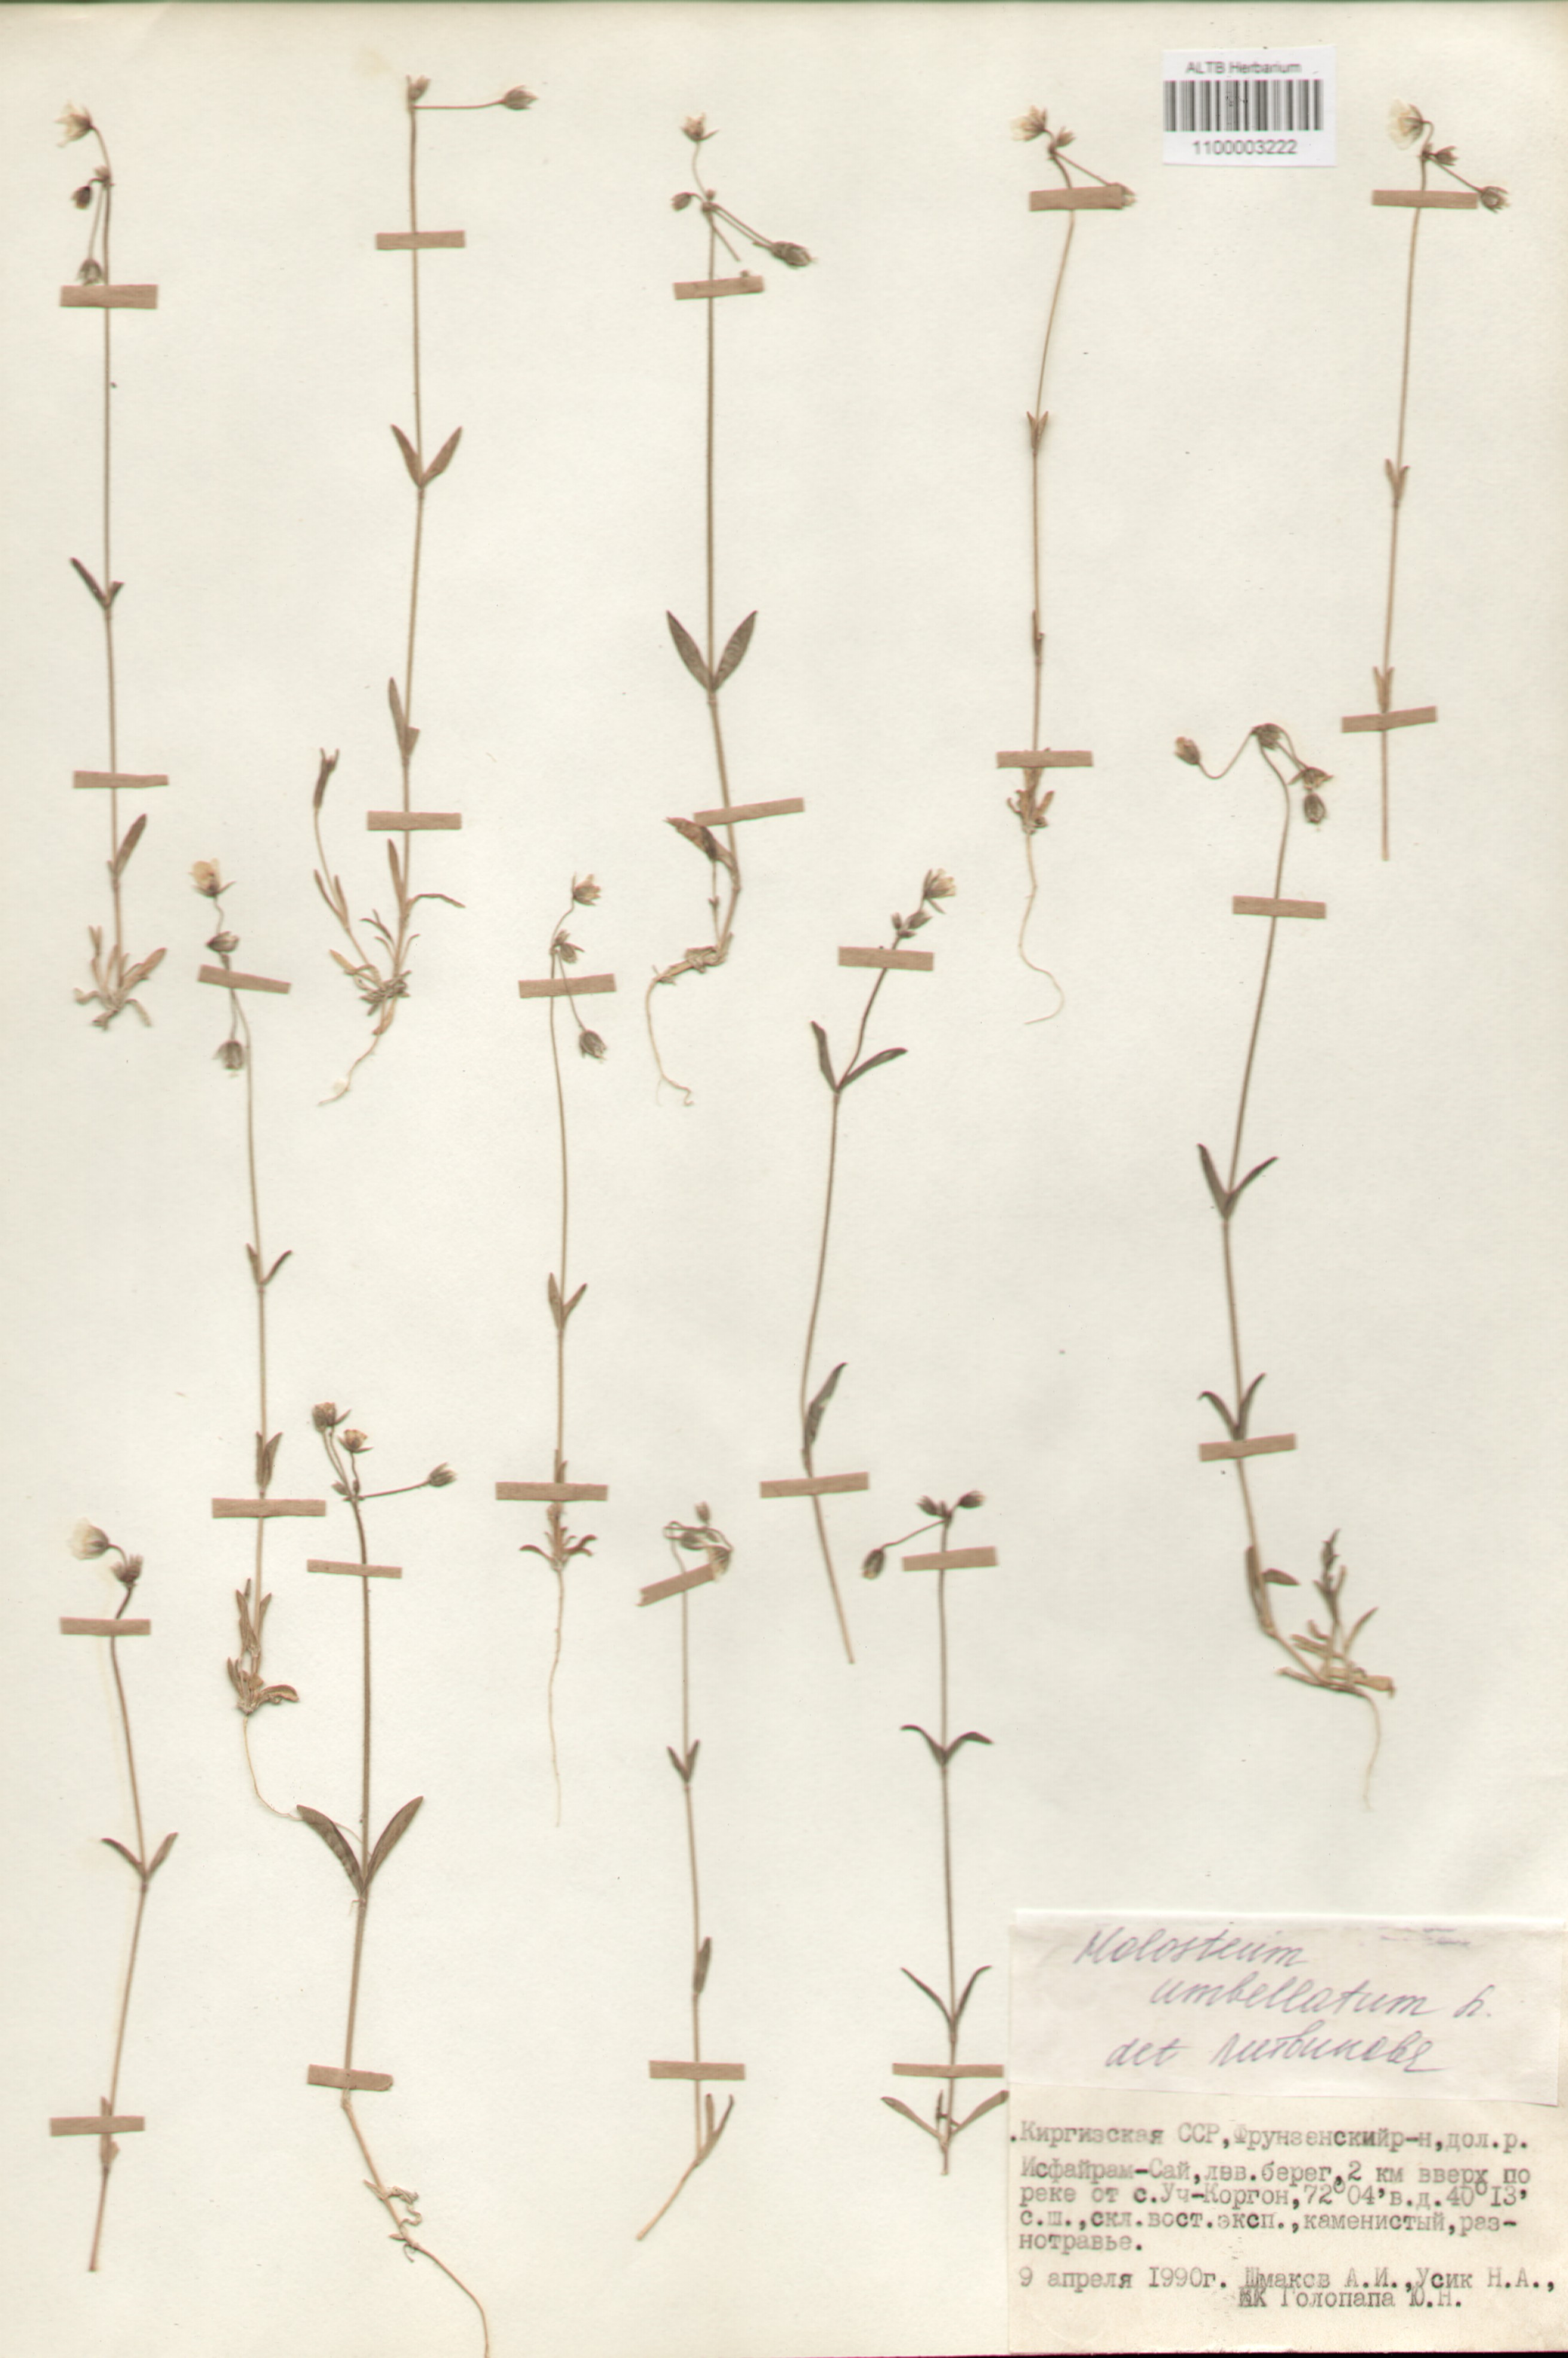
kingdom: Plantae
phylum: Tracheophyta
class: Magnoliopsida
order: Caryophyllales
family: Caryophyllaceae
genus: Holosteum
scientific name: Holosteum umbellatum
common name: Jagged chickweed
